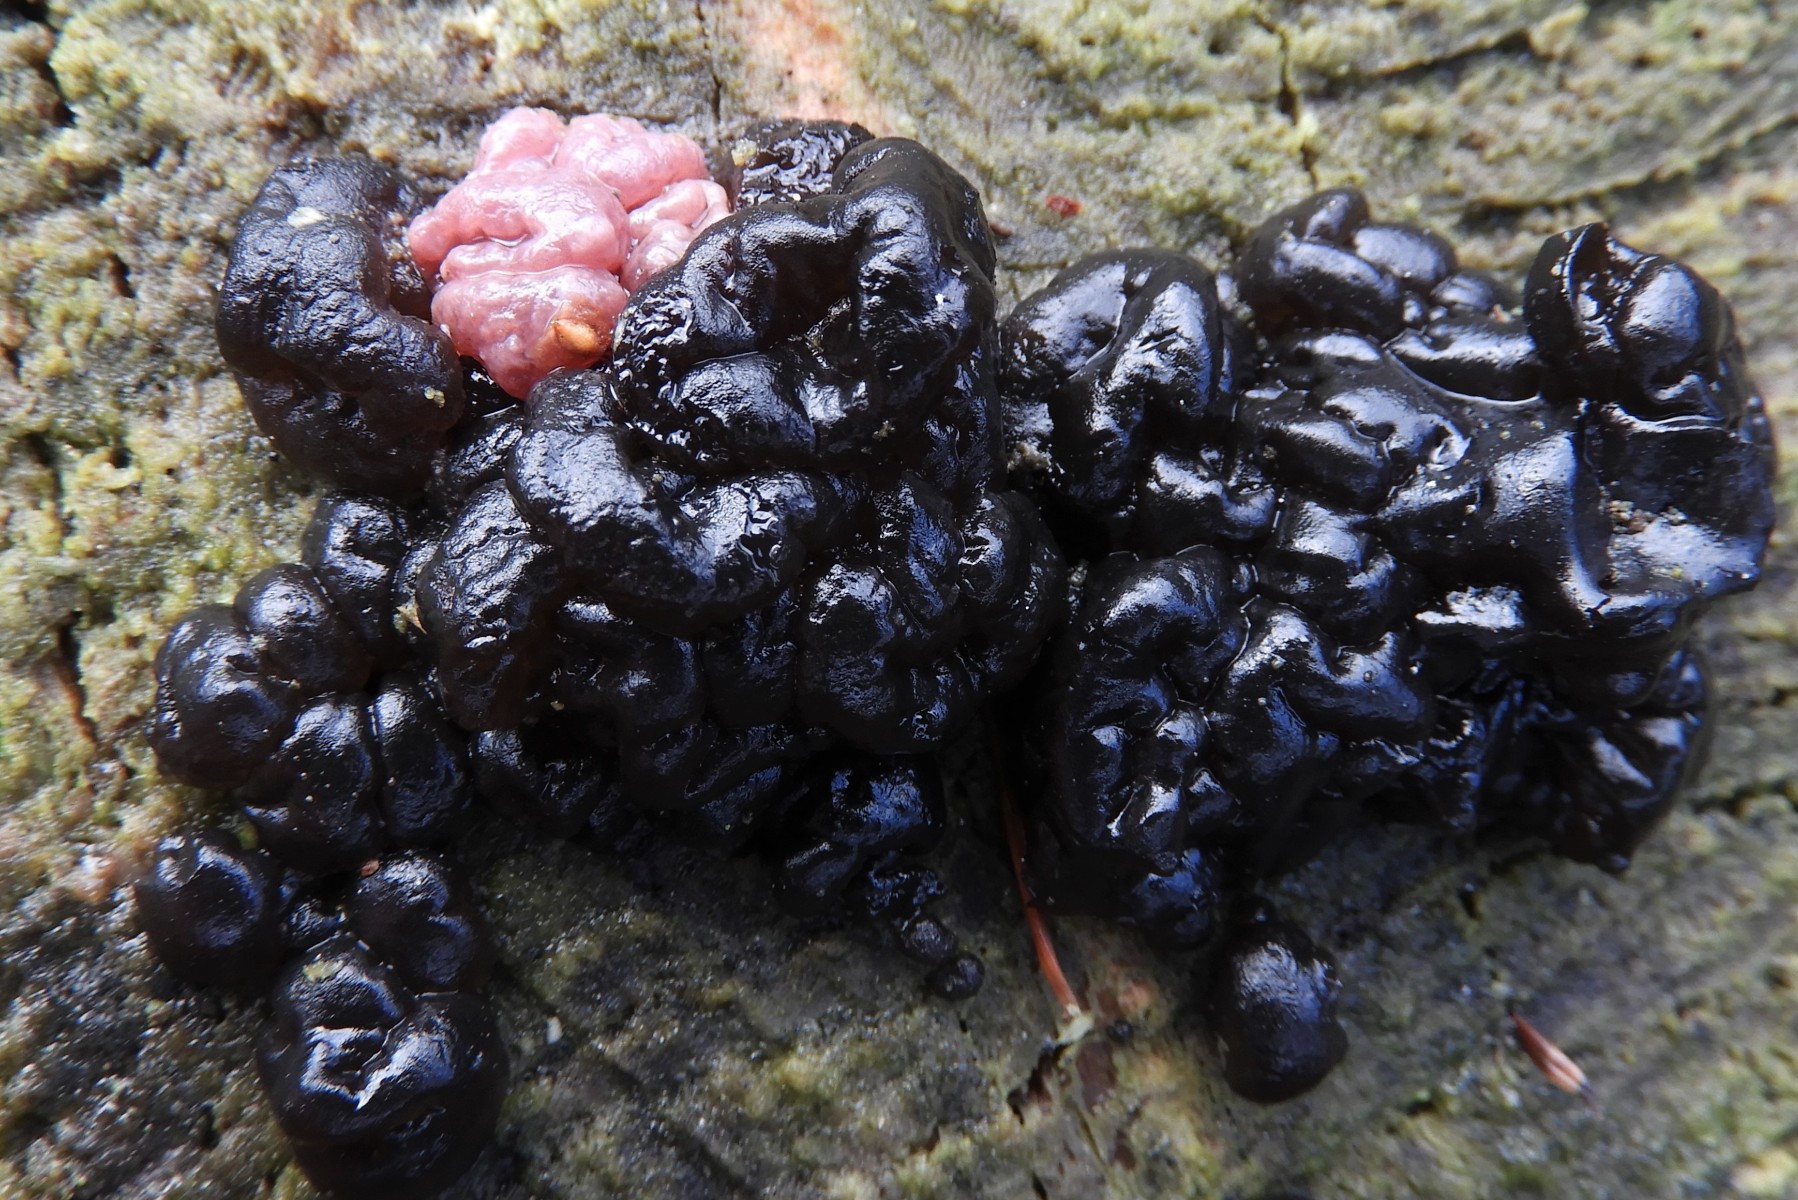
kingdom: Fungi
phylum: Basidiomycota
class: Agaricomycetes
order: Auriculariales
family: Auriculariaceae
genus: Exidia
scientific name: Exidia nigricans
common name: almindelig bævretop
